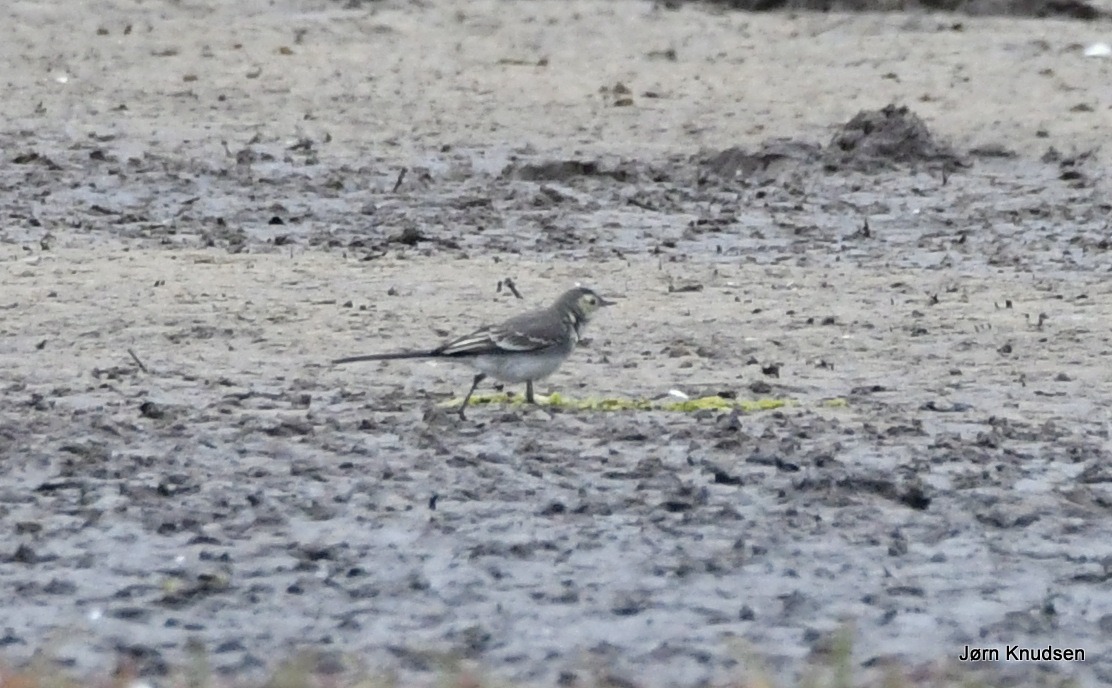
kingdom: Animalia
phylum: Chordata
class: Aves
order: Passeriformes
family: Motacillidae
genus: Motacilla
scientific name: Motacilla alba
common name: Hvid vipstjert
